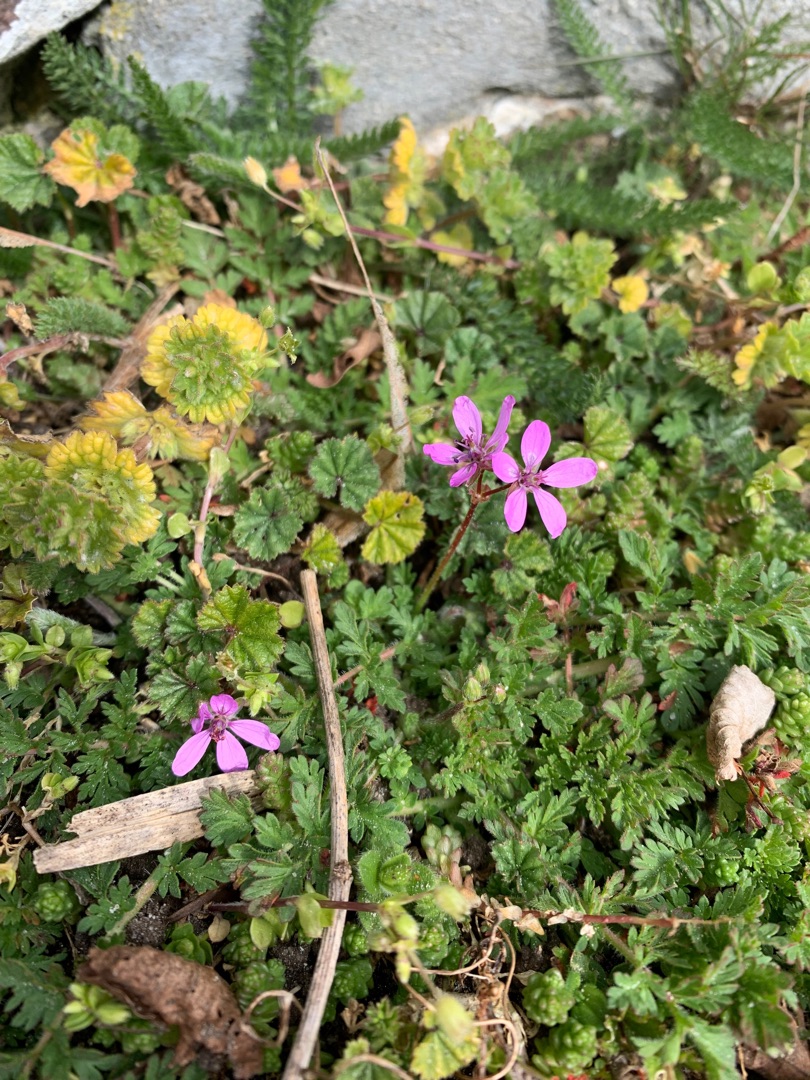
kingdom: Plantae
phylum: Tracheophyta
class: Magnoliopsida
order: Geraniales
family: Geraniaceae
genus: Erodium
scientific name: Erodium cicutarium
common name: Hejrenæb
